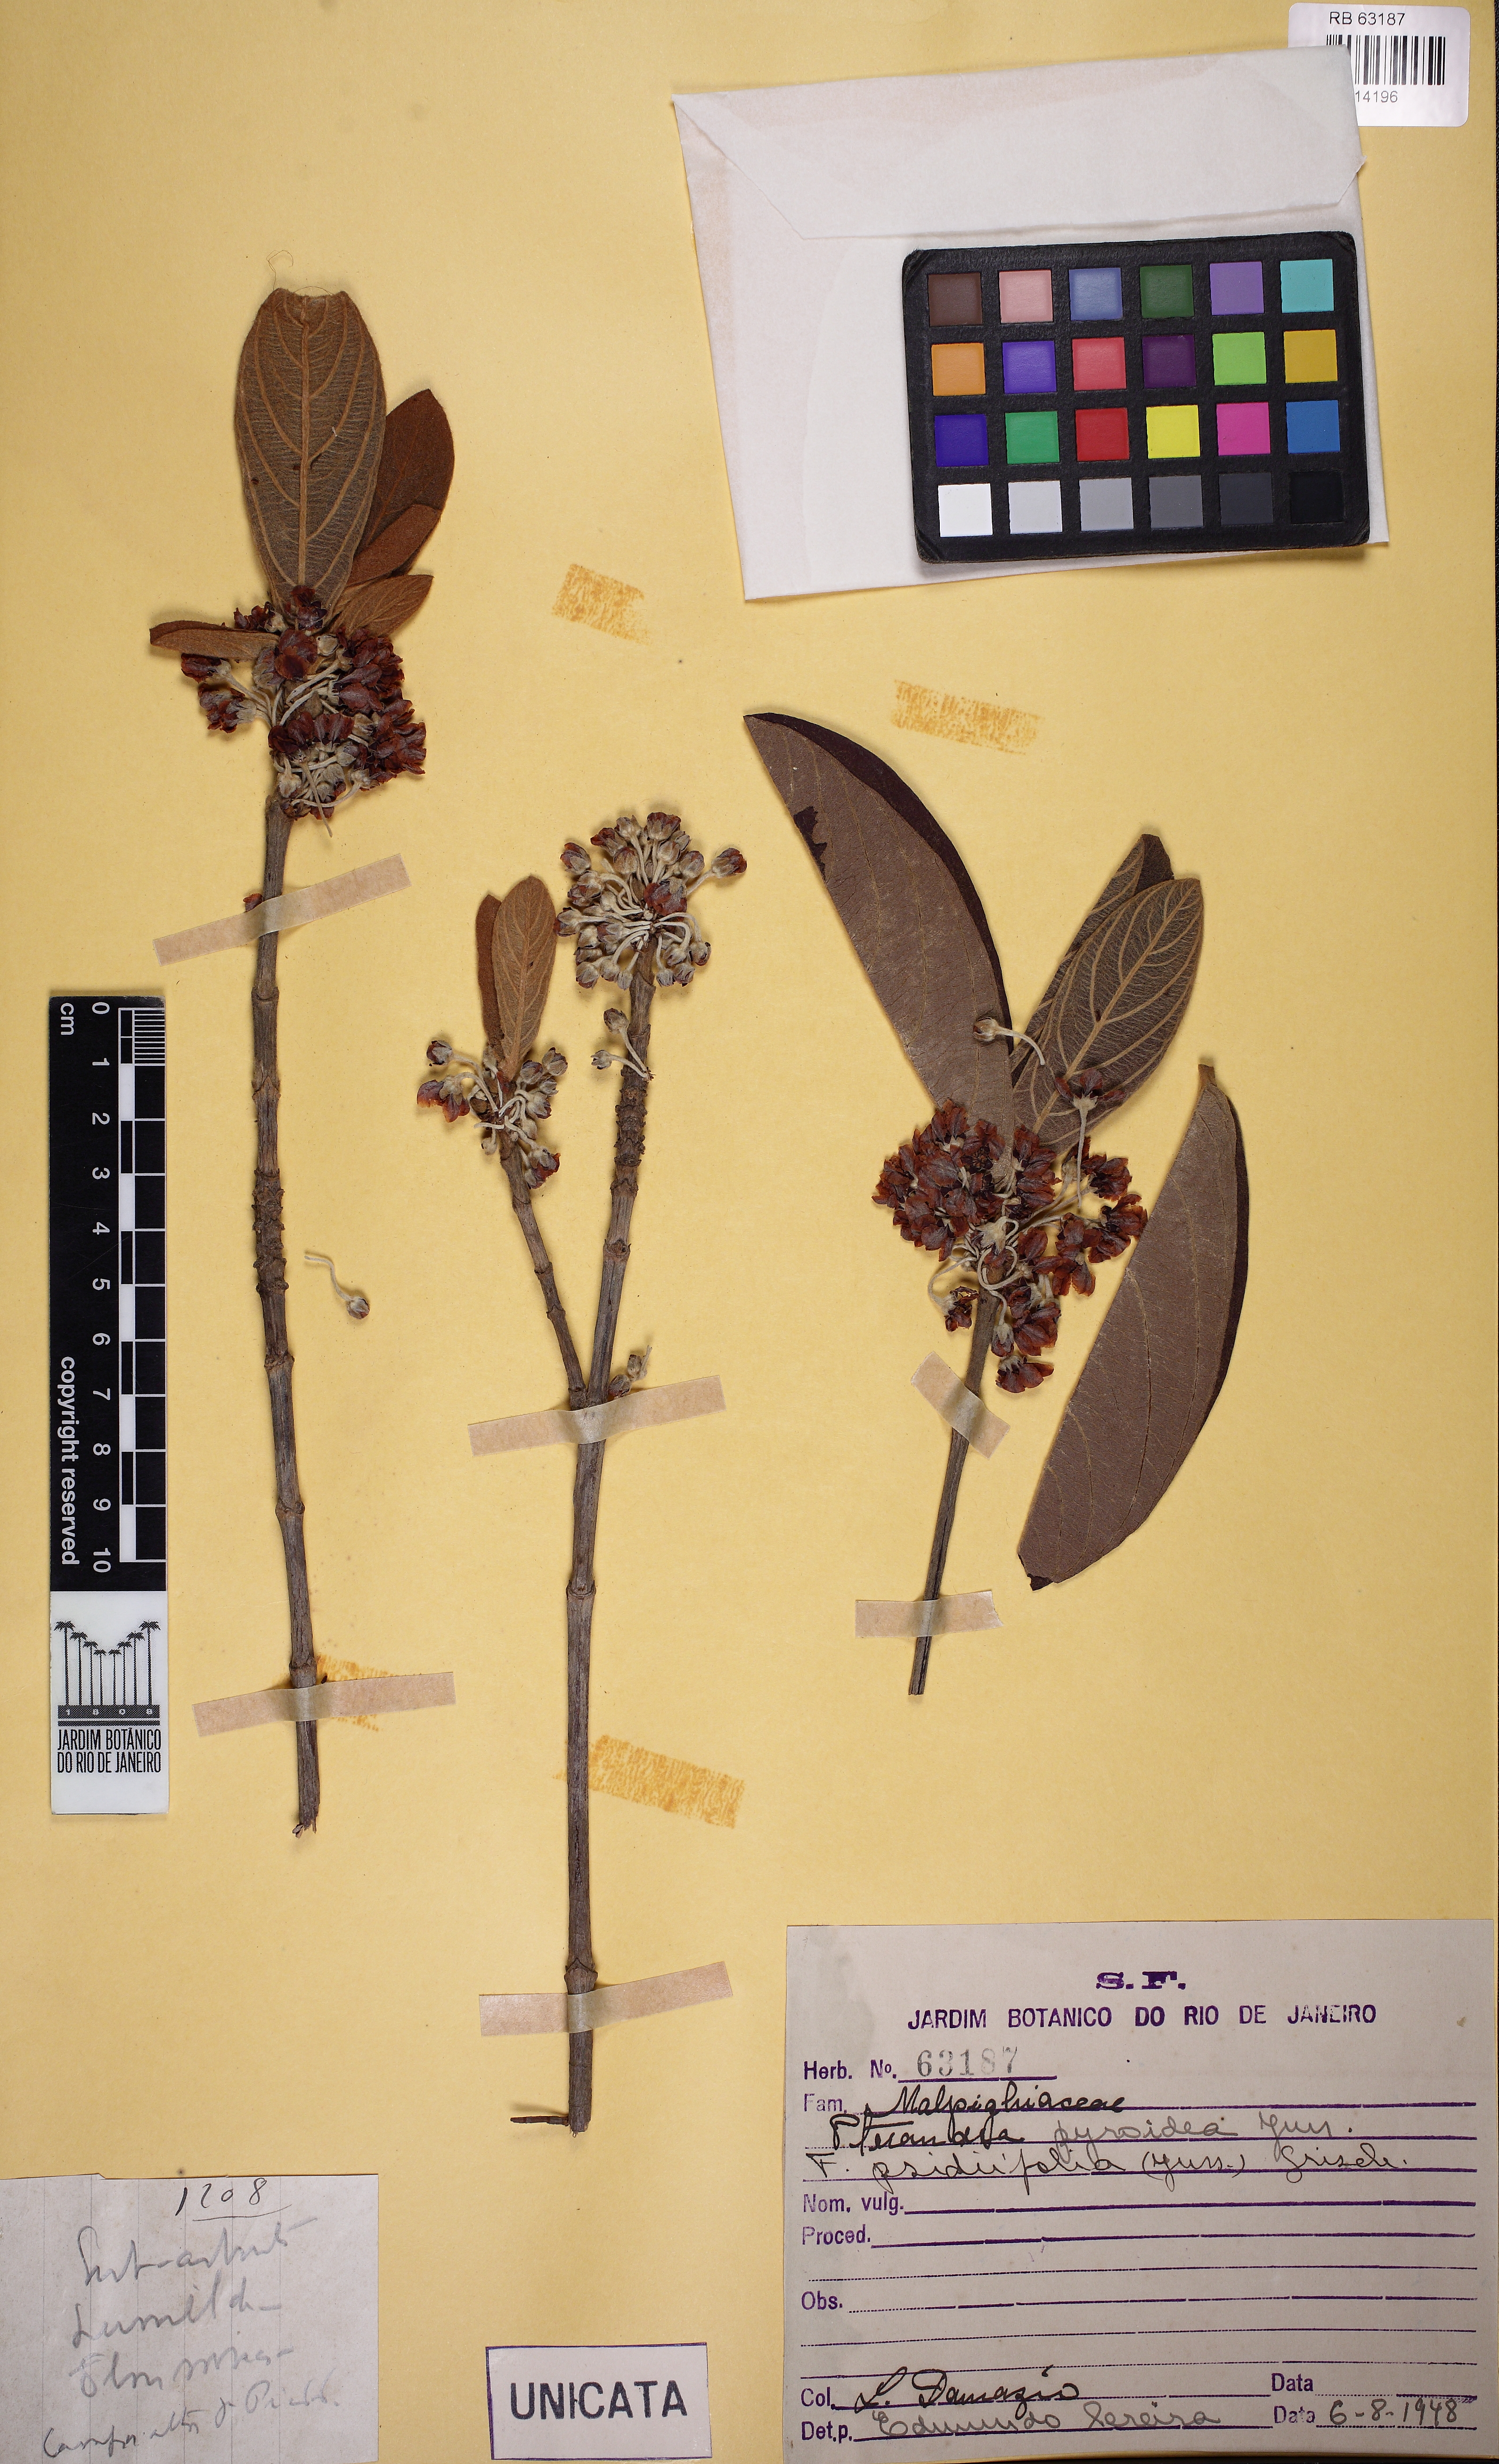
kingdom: Plantae
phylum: Tracheophyta
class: Magnoliopsida
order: Malpighiales
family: Malpighiaceae
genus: Pterandra
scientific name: Pterandra pyroidea
